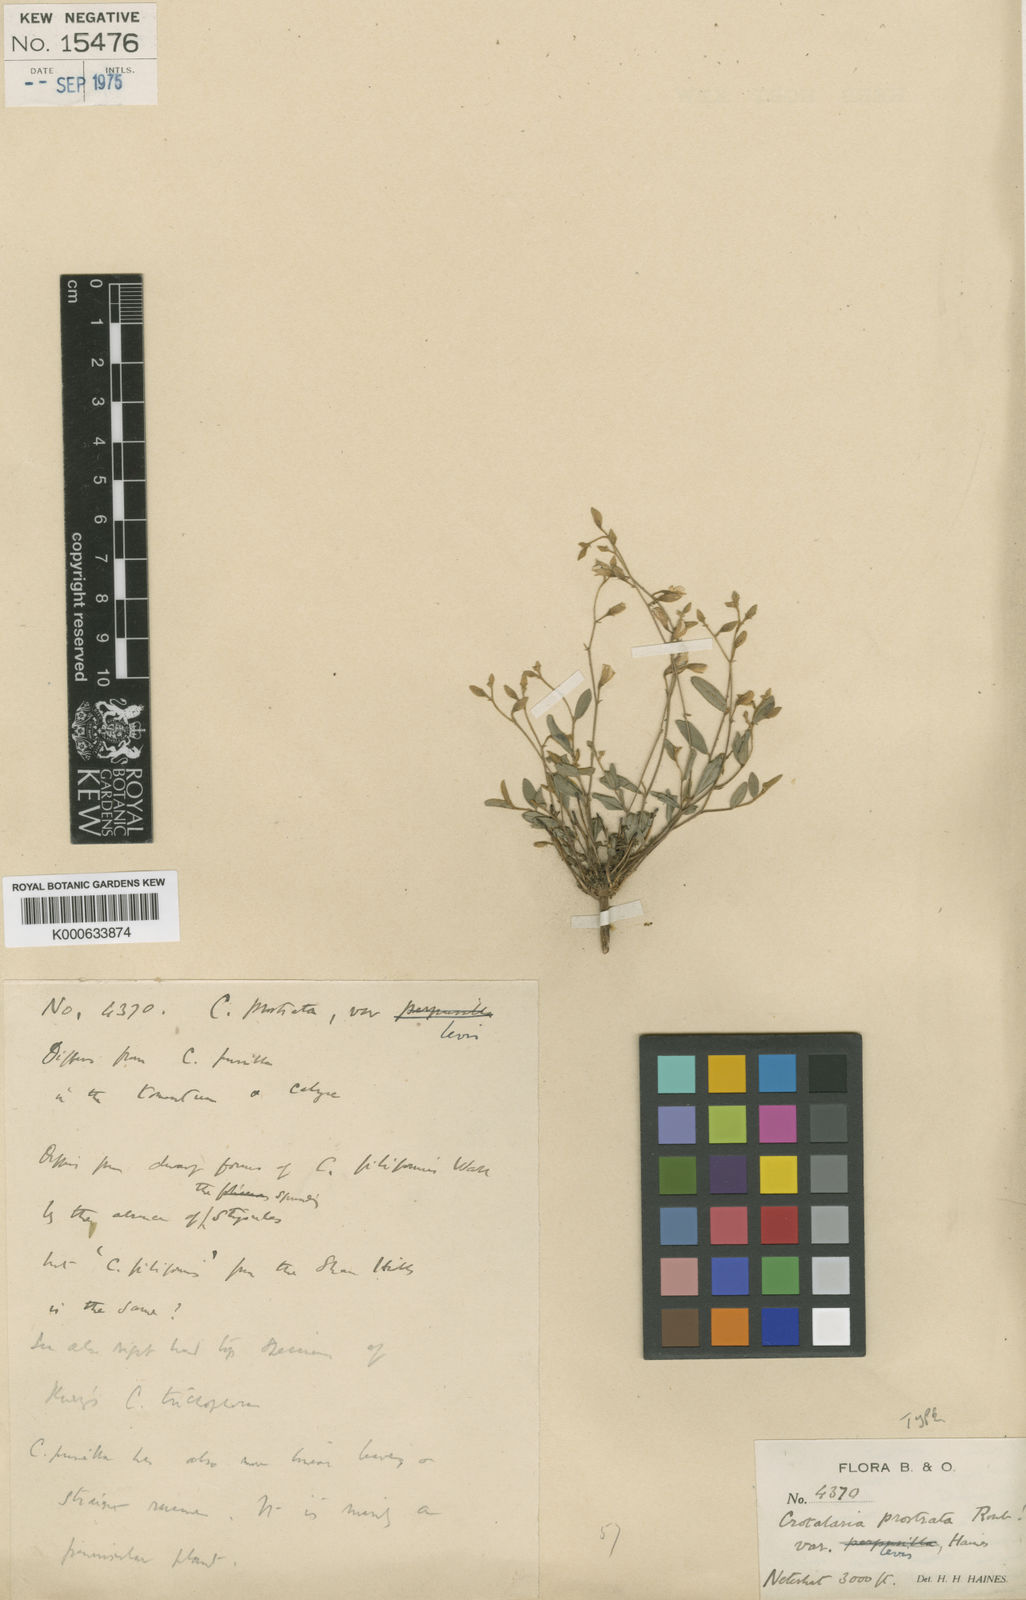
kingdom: Plantae
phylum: Tracheophyta
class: Magnoliopsida
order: Fabales
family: Fabaceae
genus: Crotalaria
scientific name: Crotalaria
